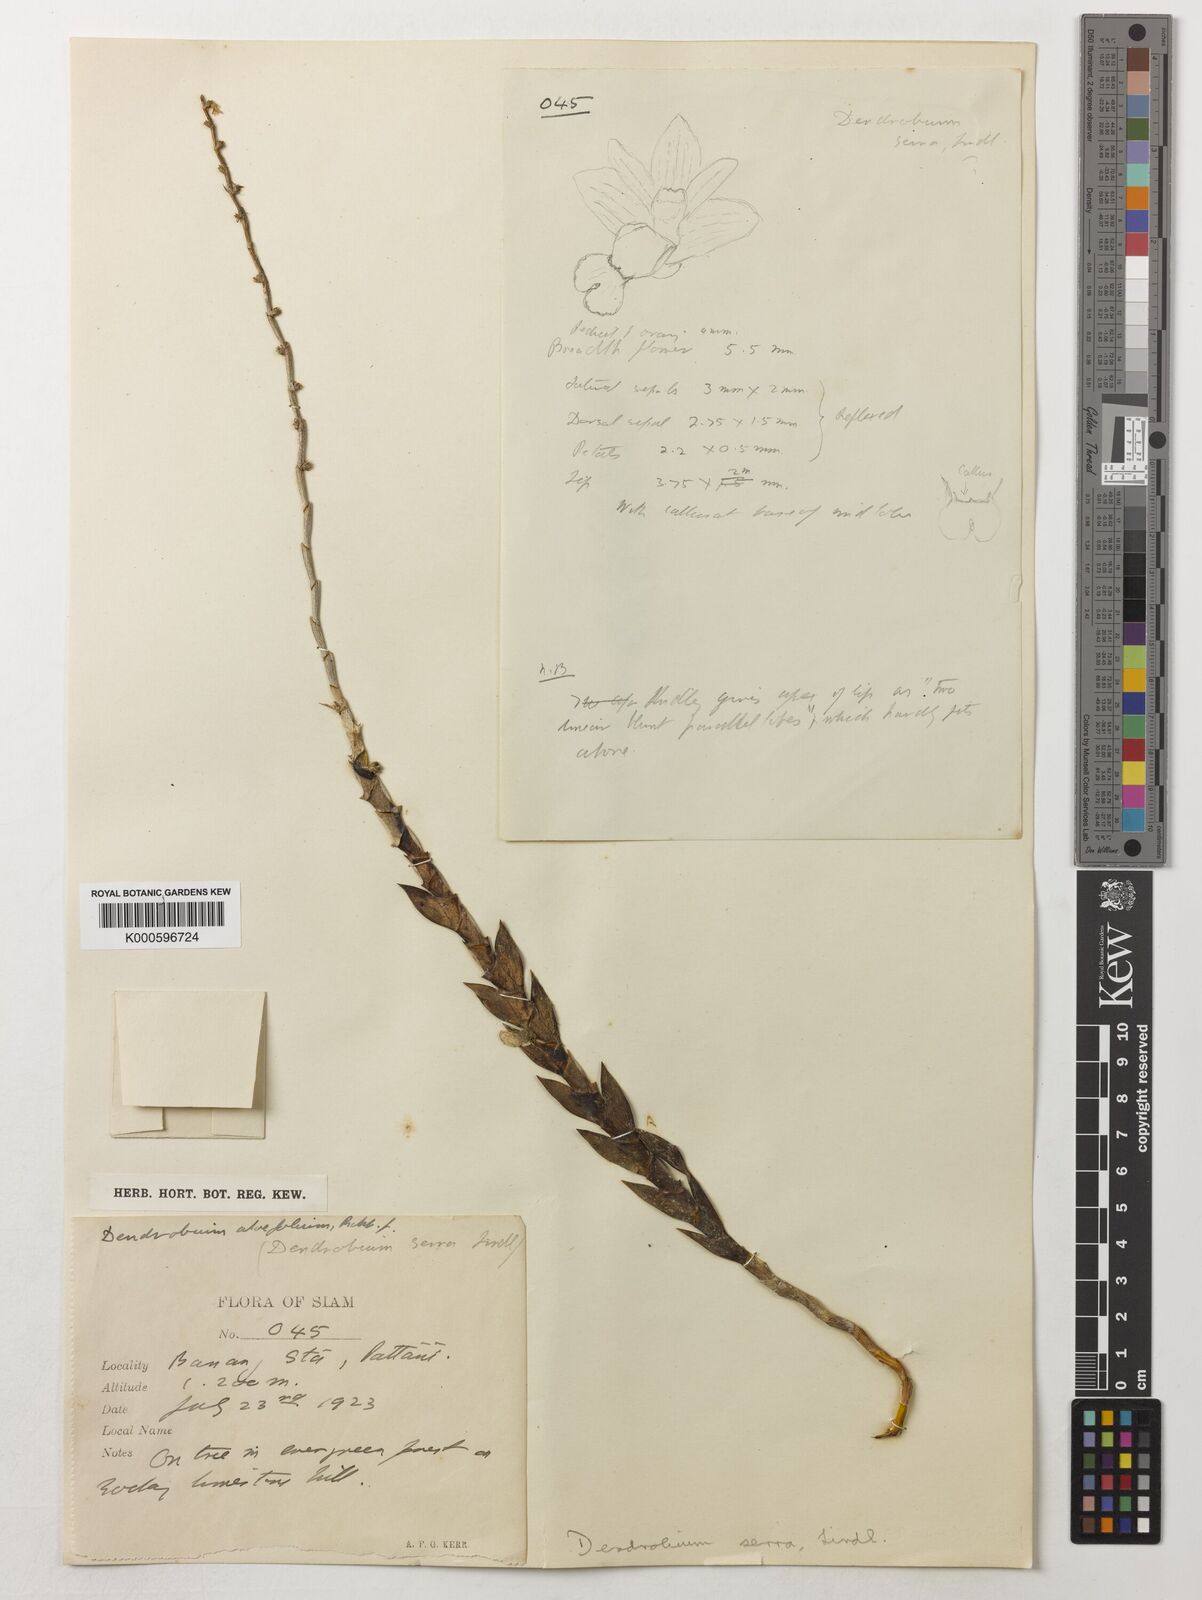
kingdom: Plantae
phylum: Tracheophyta
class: Liliopsida
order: Asparagales
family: Orchidaceae
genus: Dendrobium
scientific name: Dendrobium aloifolium
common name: Aloe-like dendrobium
